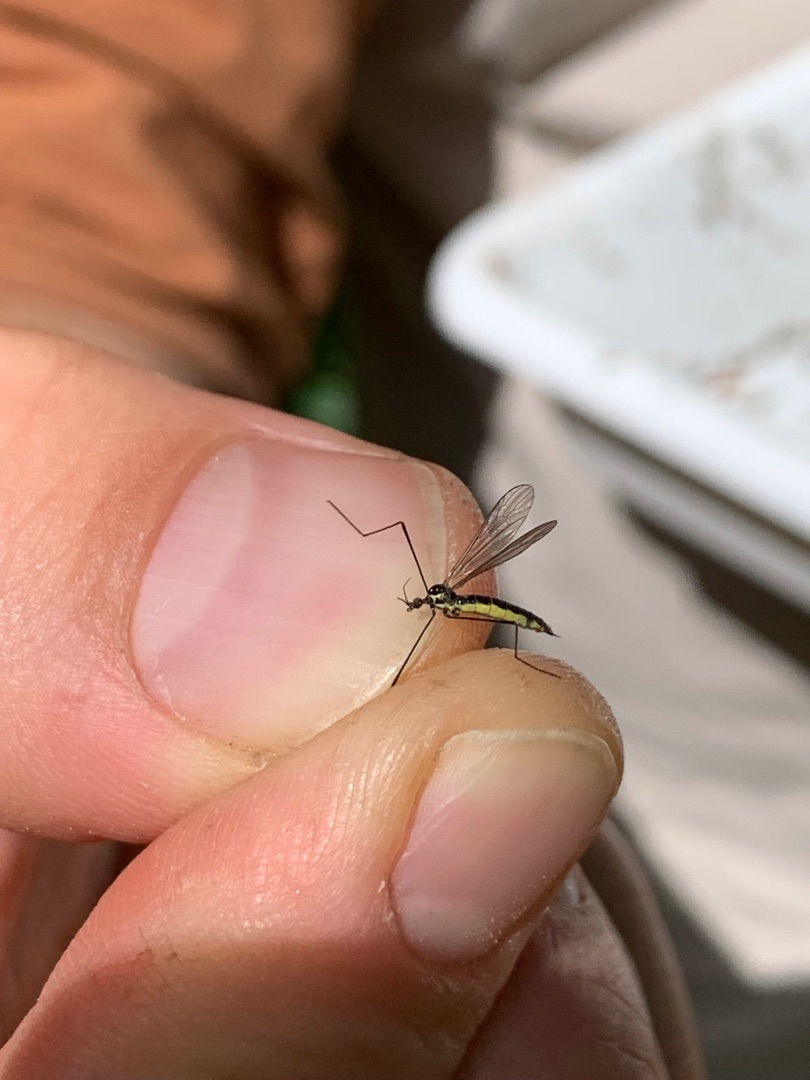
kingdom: Animalia
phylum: Arthropoda
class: Insecta
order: Diptera
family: Limoniidae
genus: Ellipteroides
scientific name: Ellipteroides lateralis
